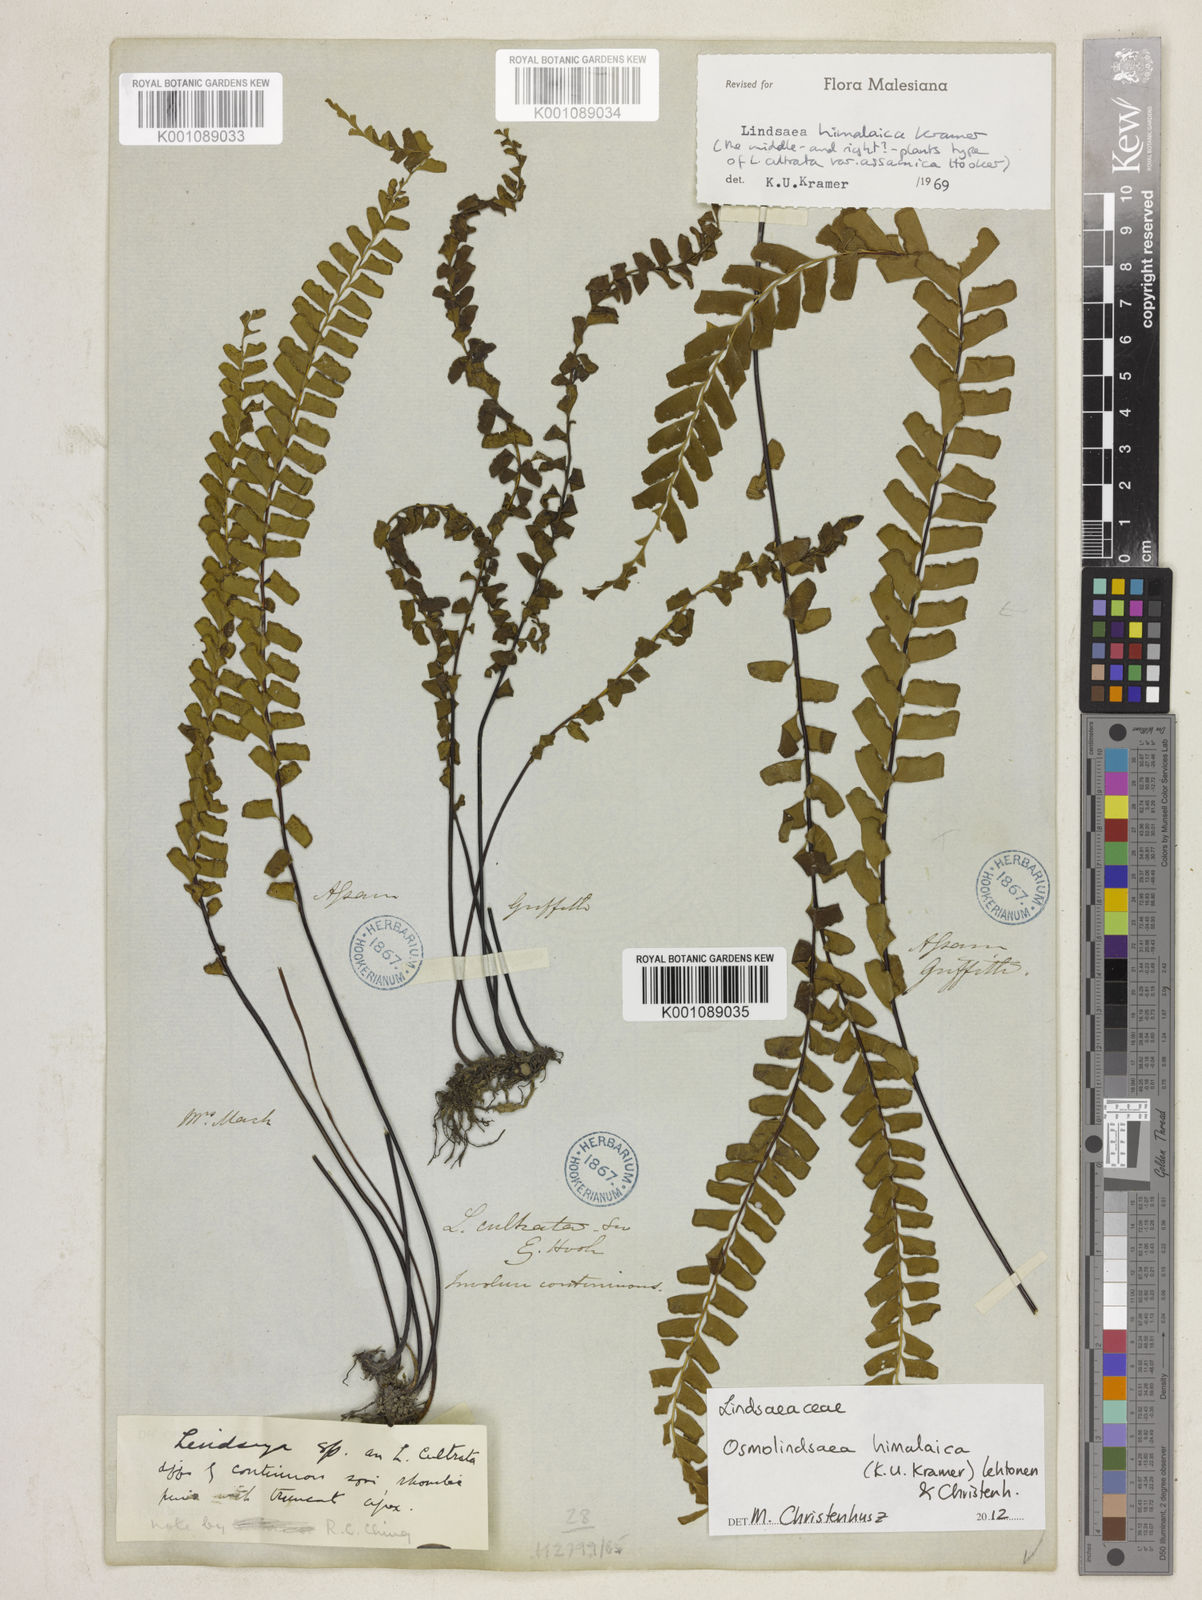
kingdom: Plantae
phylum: Tracheophyta
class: Polypodiopsida
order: Polypodiales
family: Lindsaeaceae
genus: Osmolindsaea
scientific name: Osmolindsaea himalaica
